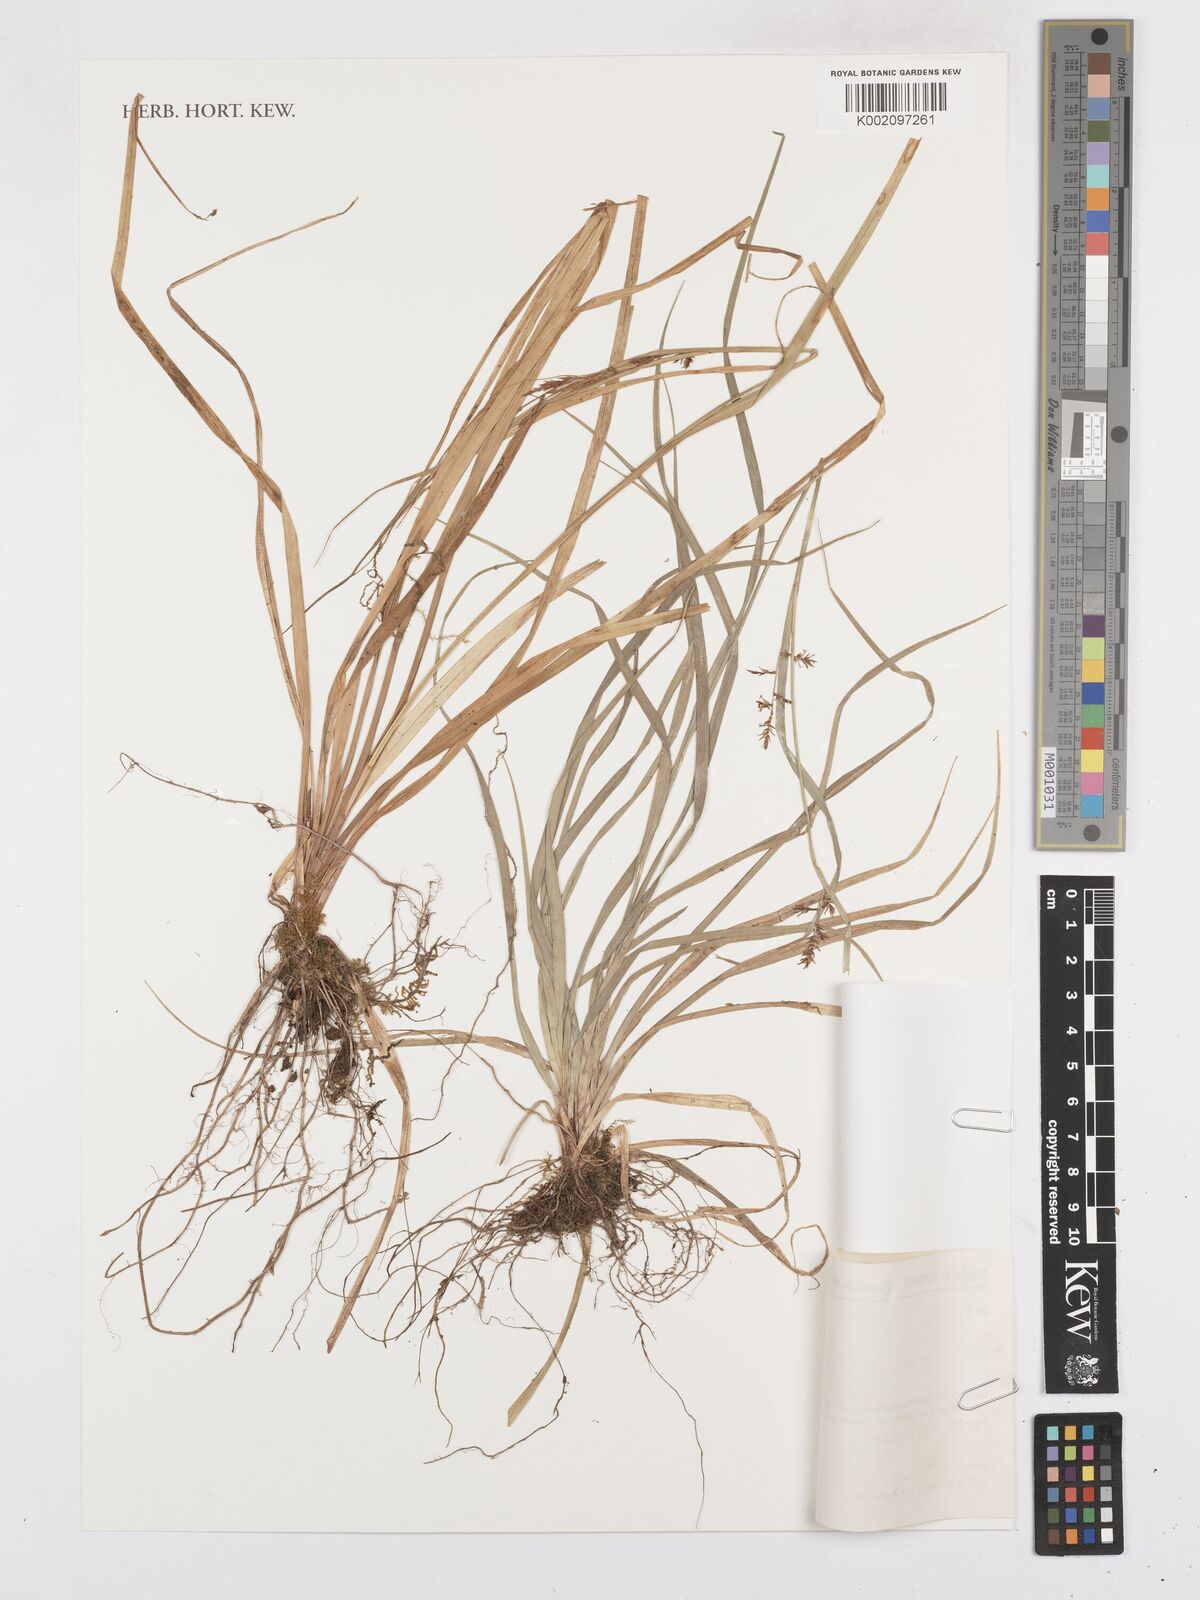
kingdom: Plantae
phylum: Tracheophyta
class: Liliopsida
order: Poales
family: Cyperaceae
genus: Carex
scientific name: Carex renschiana
